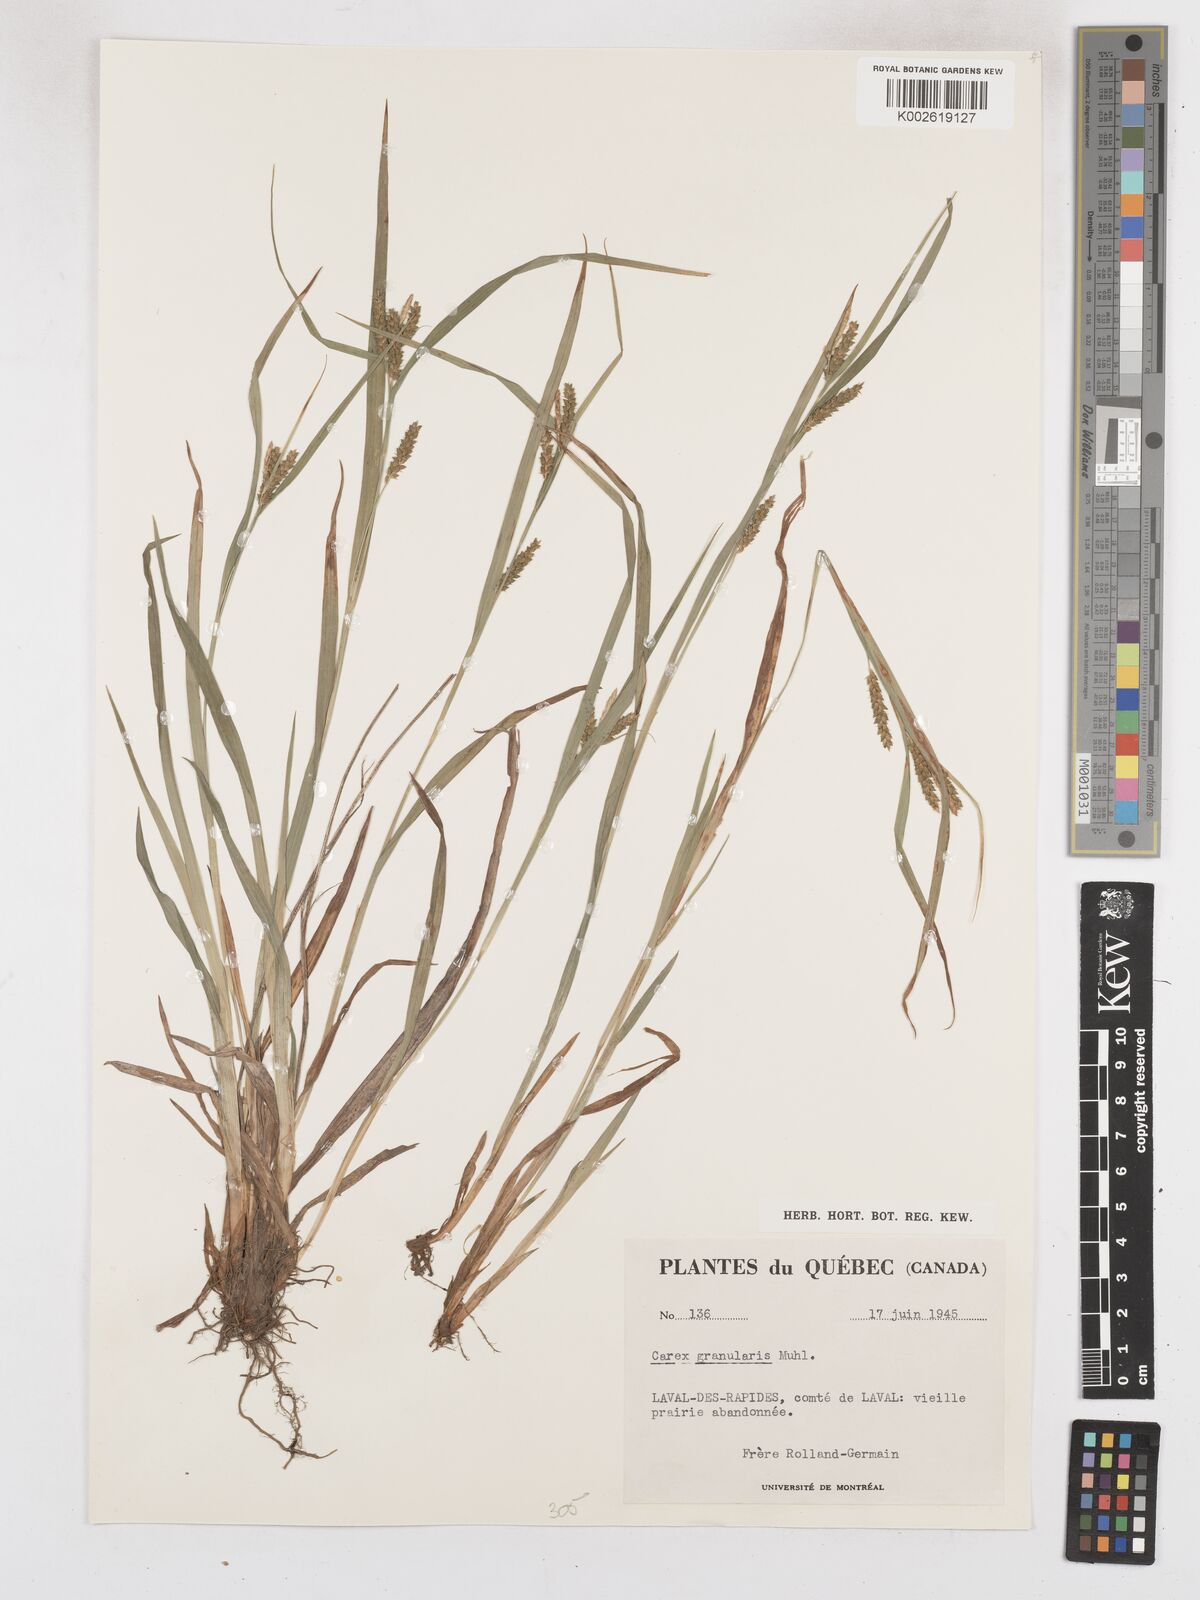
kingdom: Plantae
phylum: Tracheophyta
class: Liliopsida
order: Poales
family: Cyperaceae
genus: Carex
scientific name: Carex granularis
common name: Granular sedge
